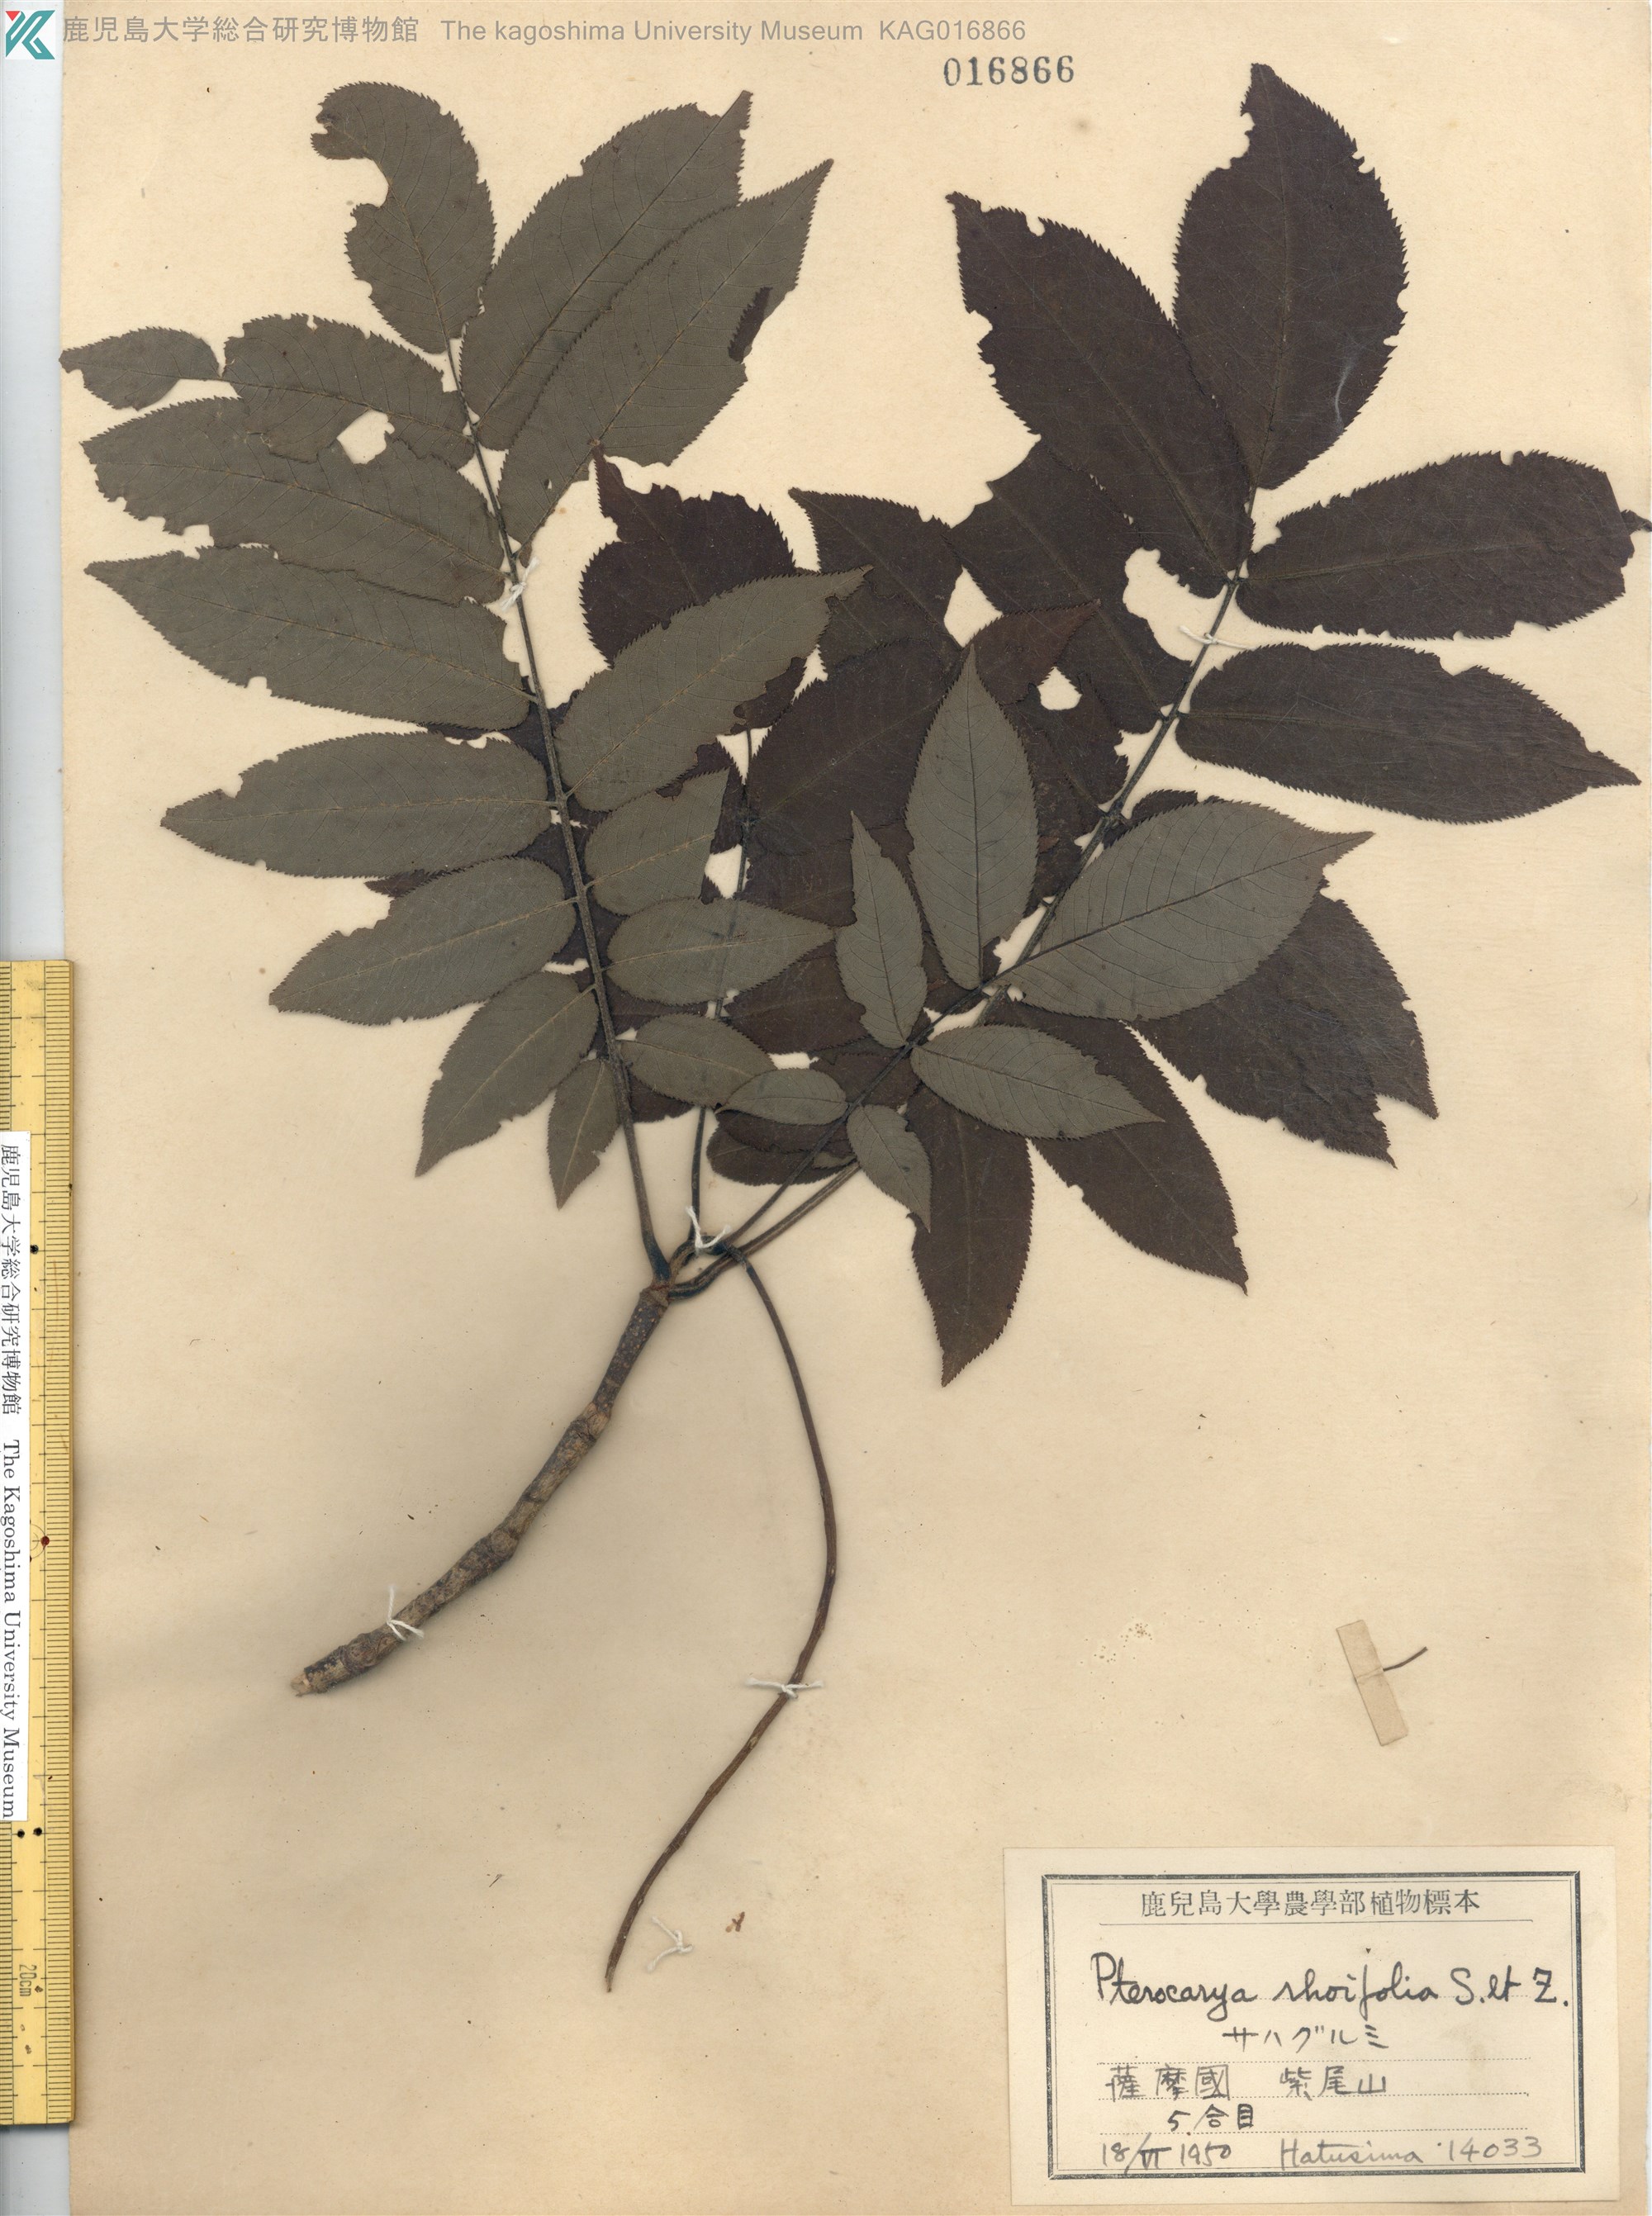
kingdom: Plantae
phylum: Tracheophyta
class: Magnoliopsida
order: Fagales
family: Juglandaceae
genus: Pterocarya
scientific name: Pterocarya rhoifolia
